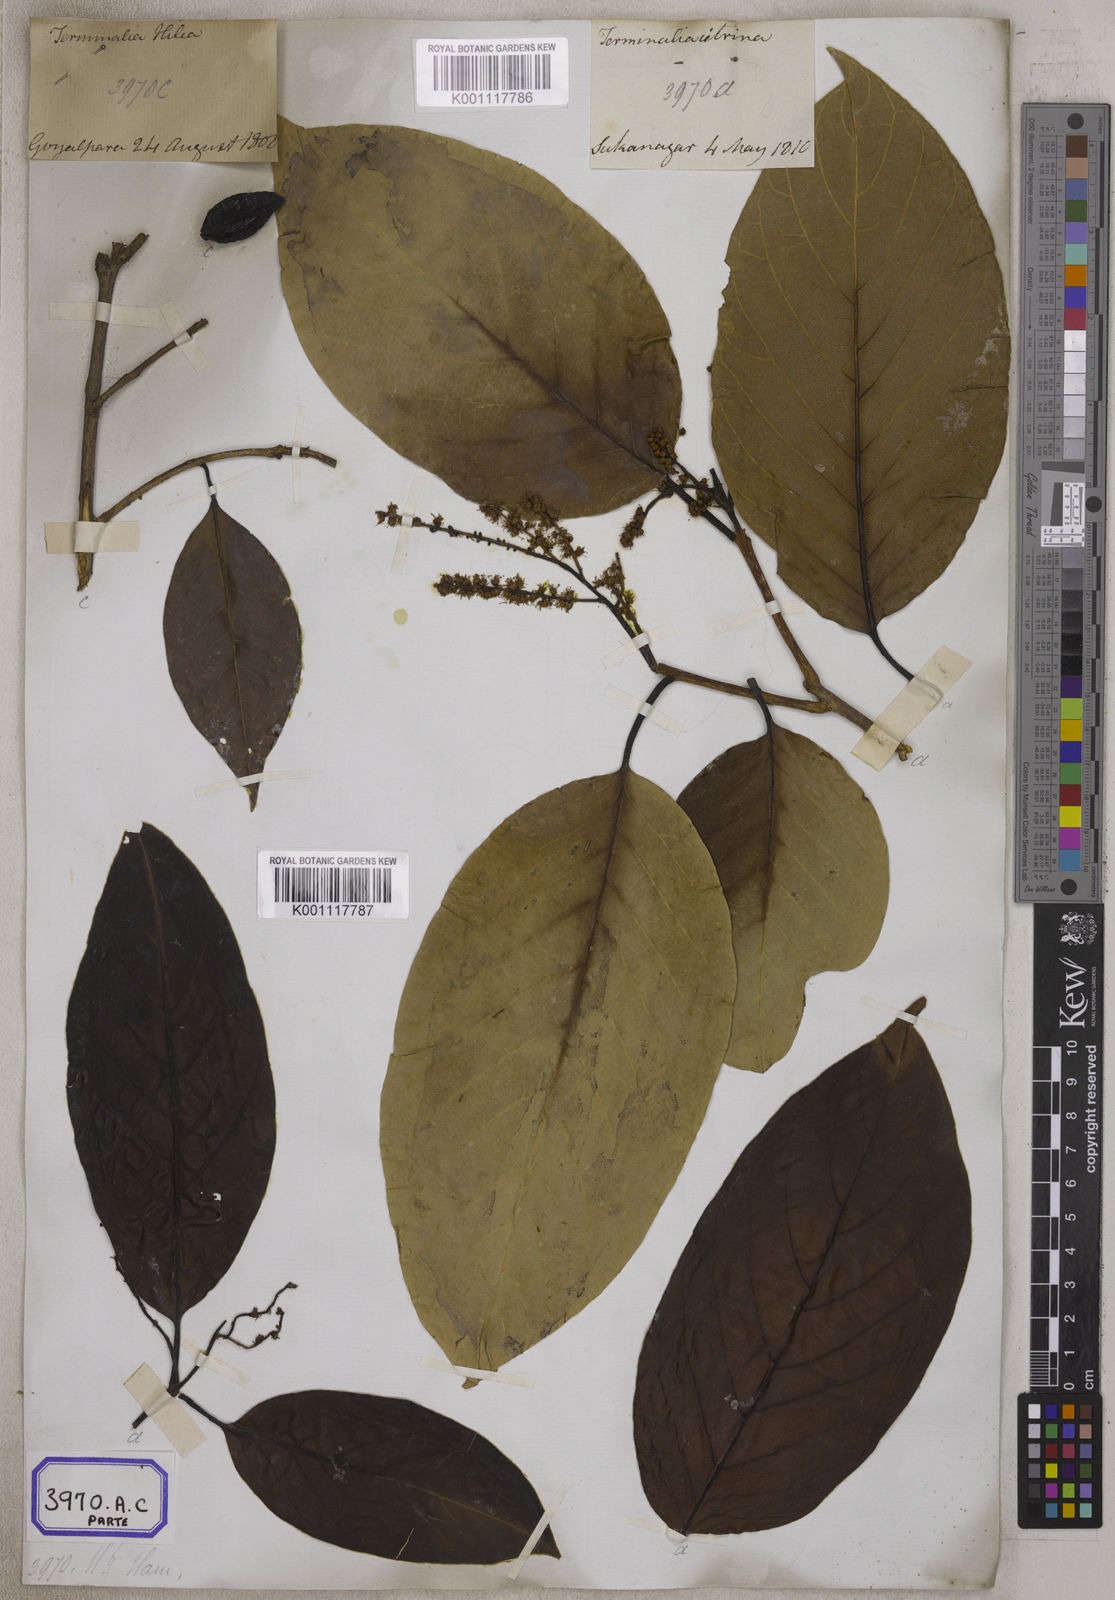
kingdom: Plantae
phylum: Tracheophyta
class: Magnoliopsida
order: Myrtales
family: Combretaceae
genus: Terminalia
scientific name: Terminalia citrina
